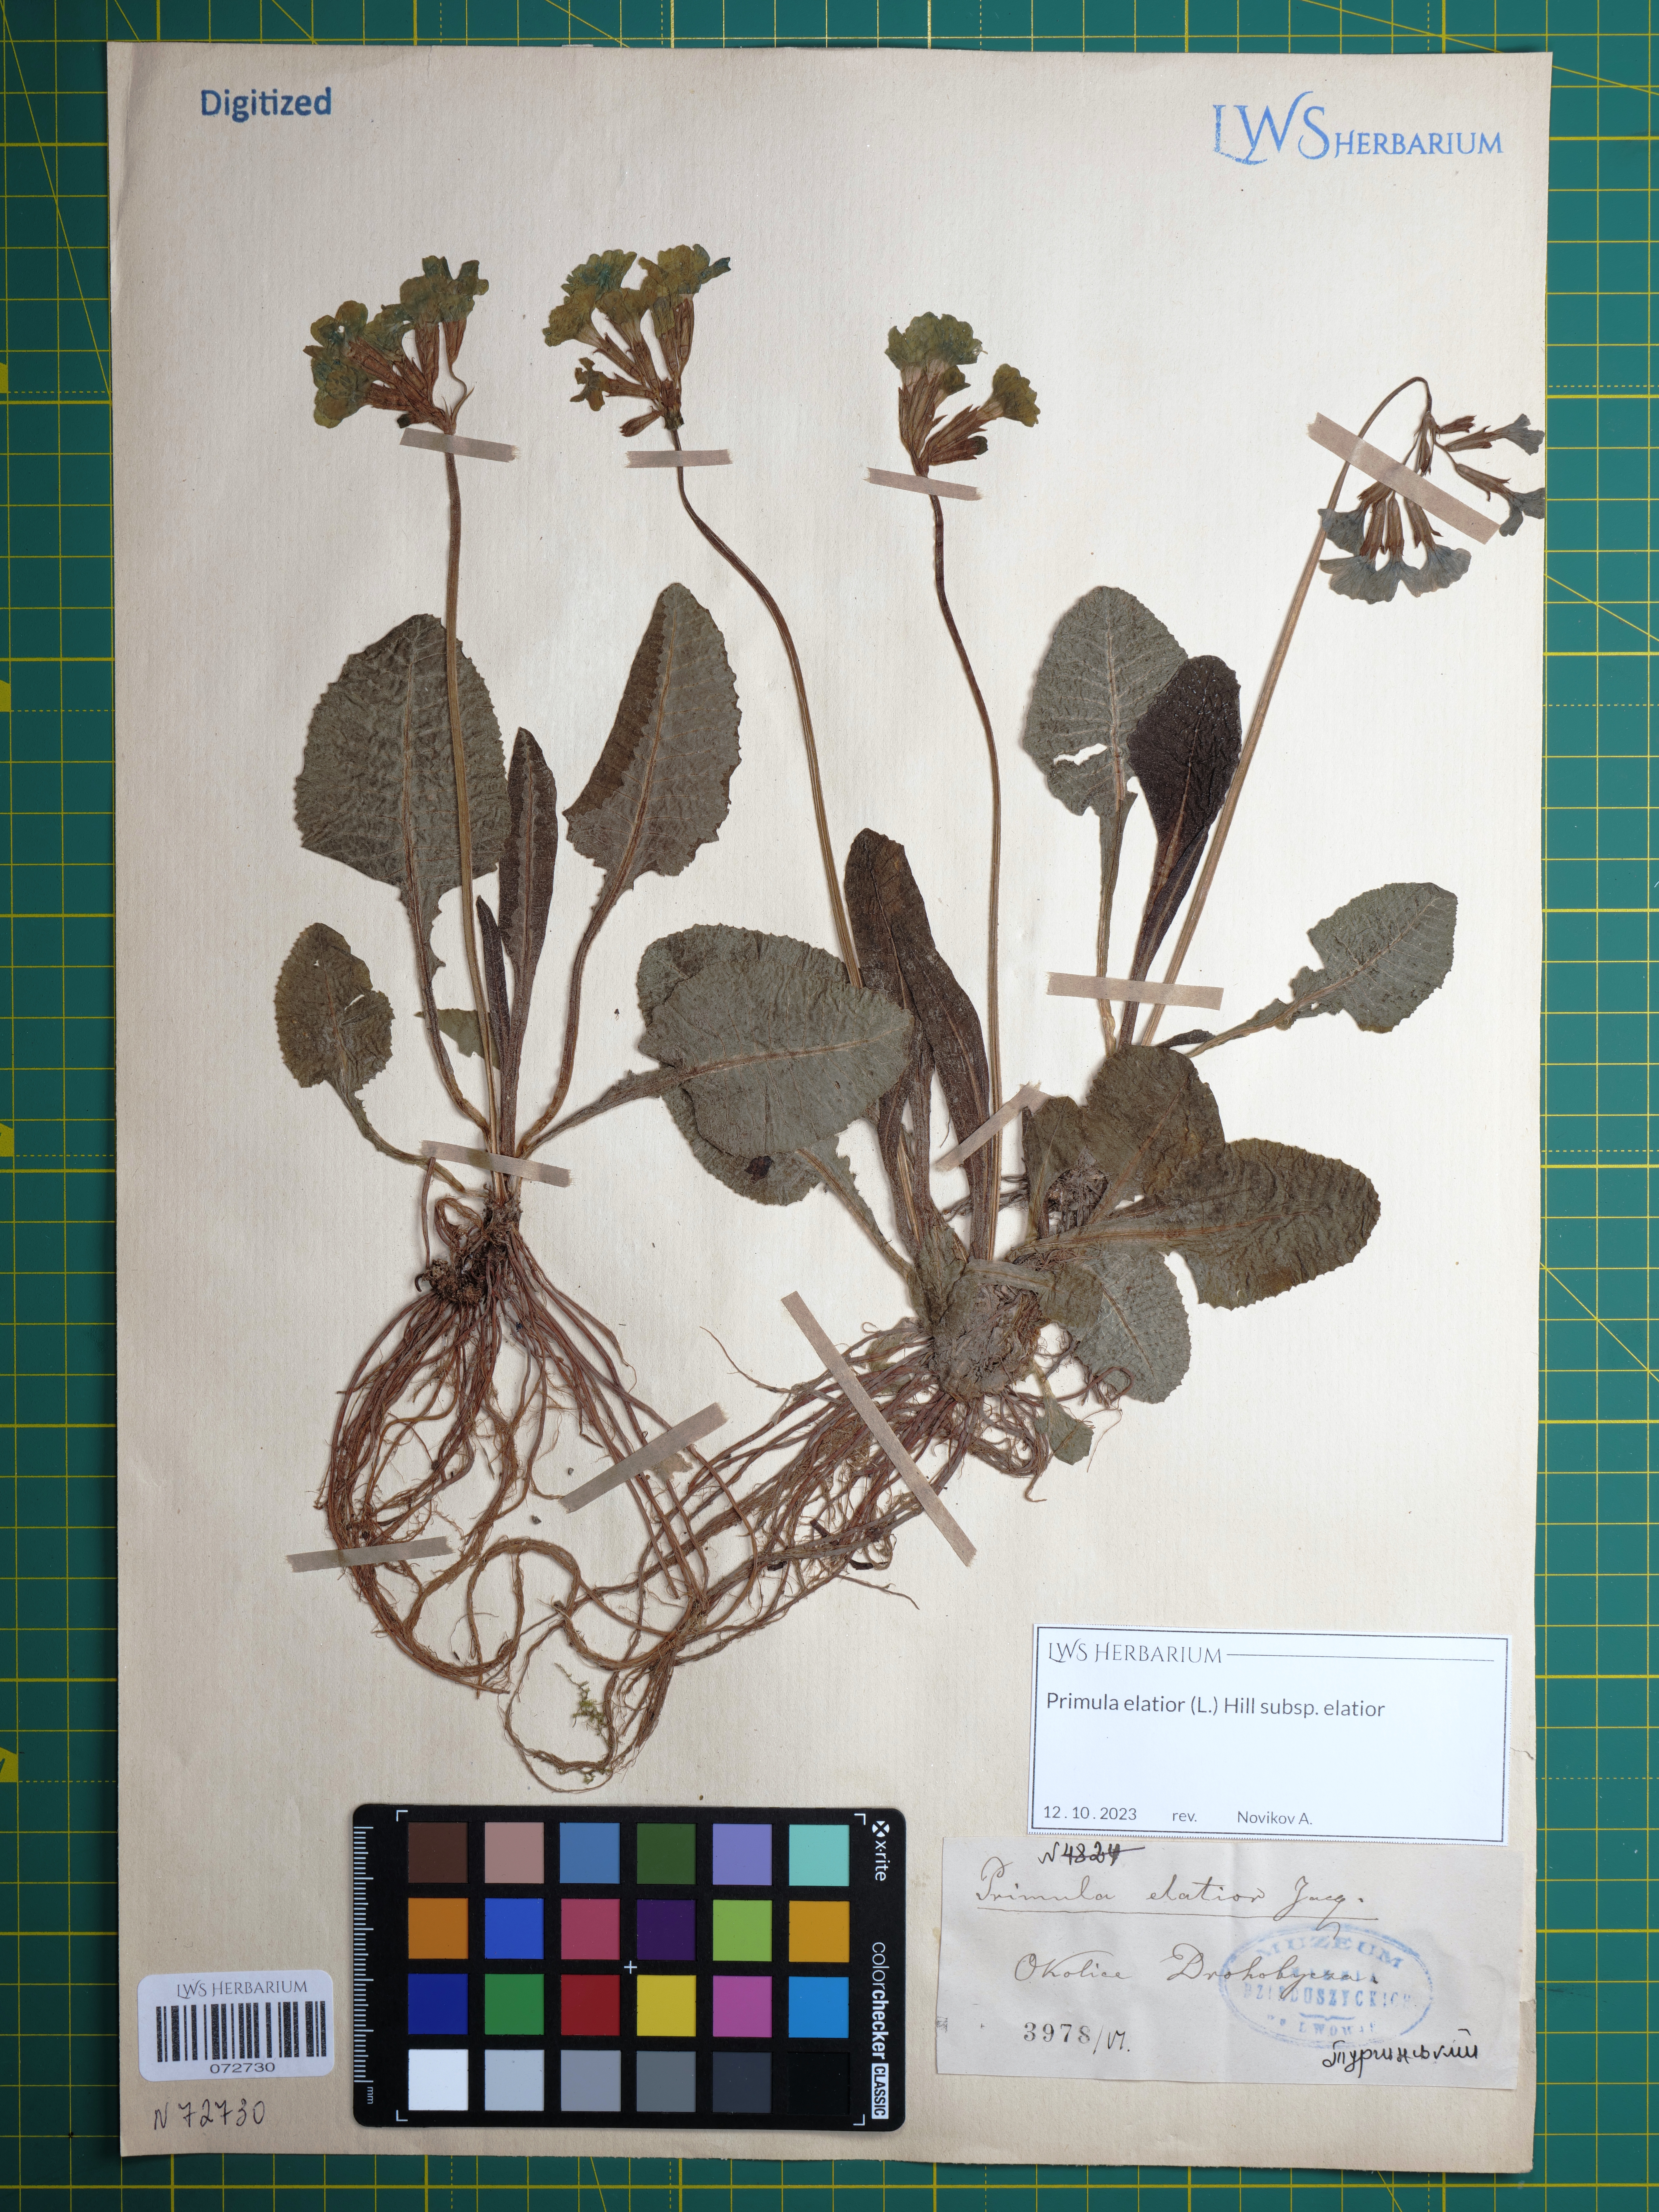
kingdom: Plantae
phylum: Tracheophyta
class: Magnoliopsida
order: Ericales
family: Primulaceae
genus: Primula
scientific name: Primula elatior
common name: Oxlip
